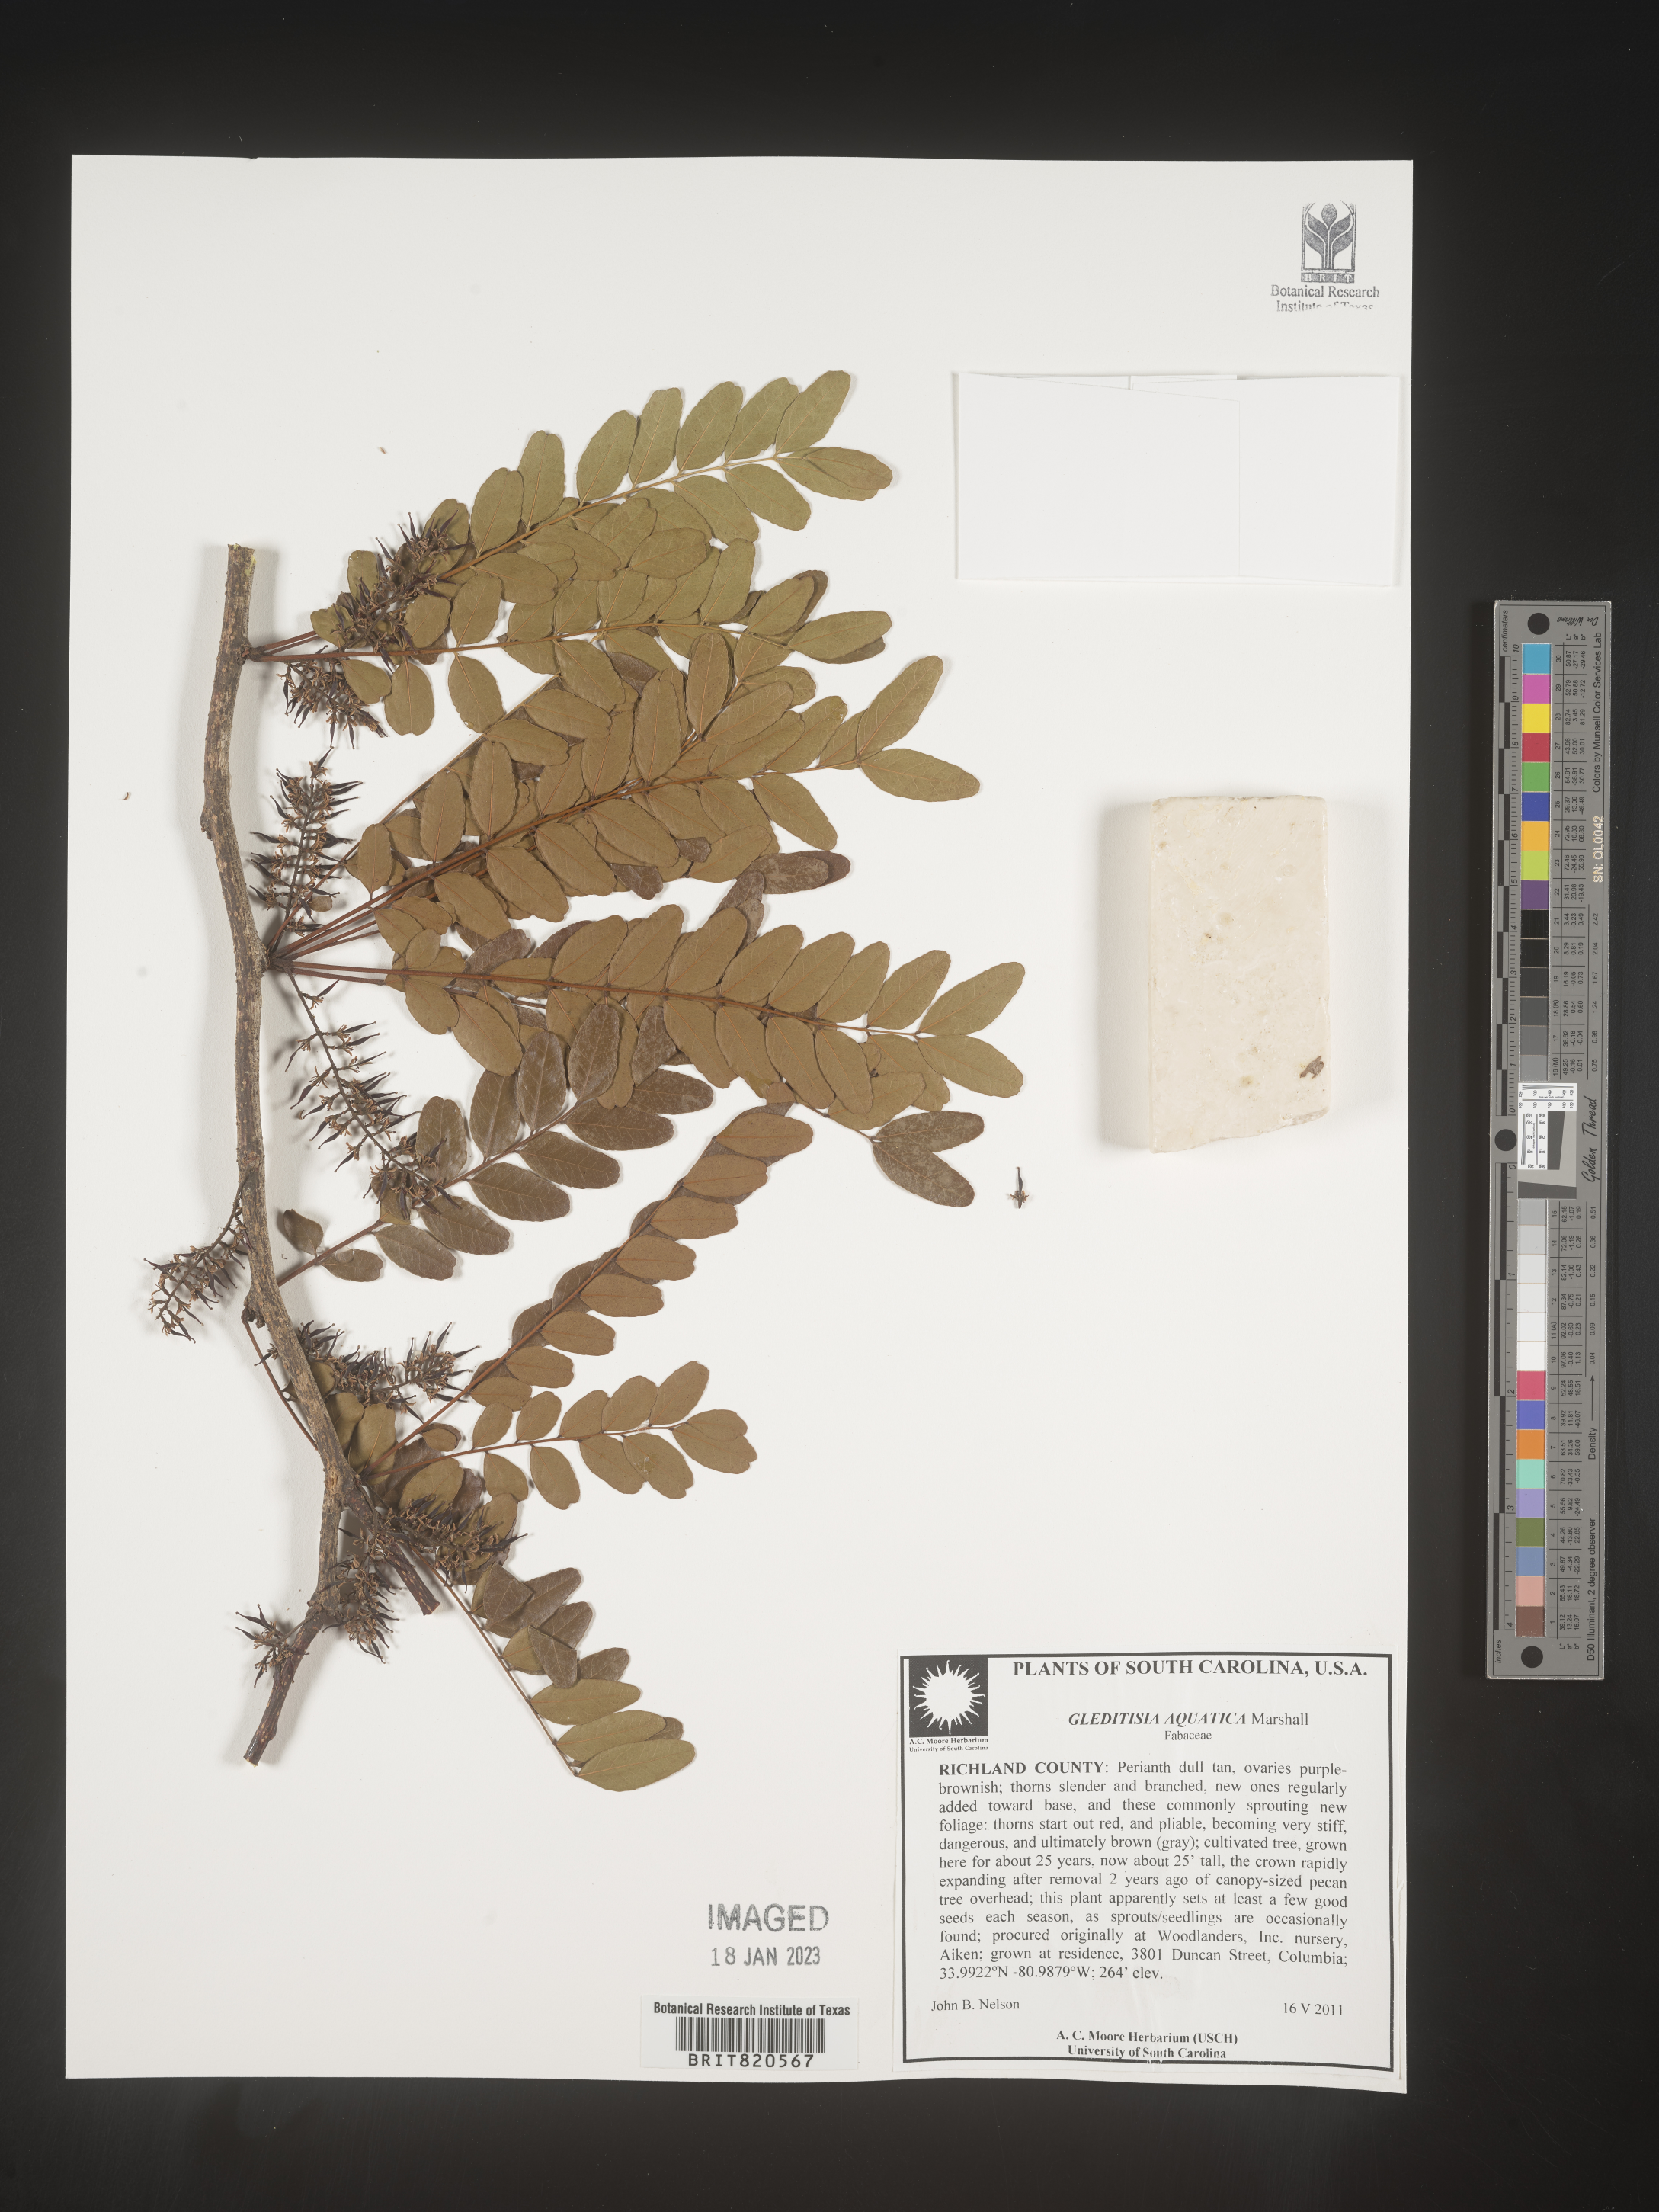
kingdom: Plantae
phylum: Tracheophyta
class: Magnoliopsida
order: Fabales
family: Fabaceae
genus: Gleditsia
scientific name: Gleditsia aquatica
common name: Swamp-locust
